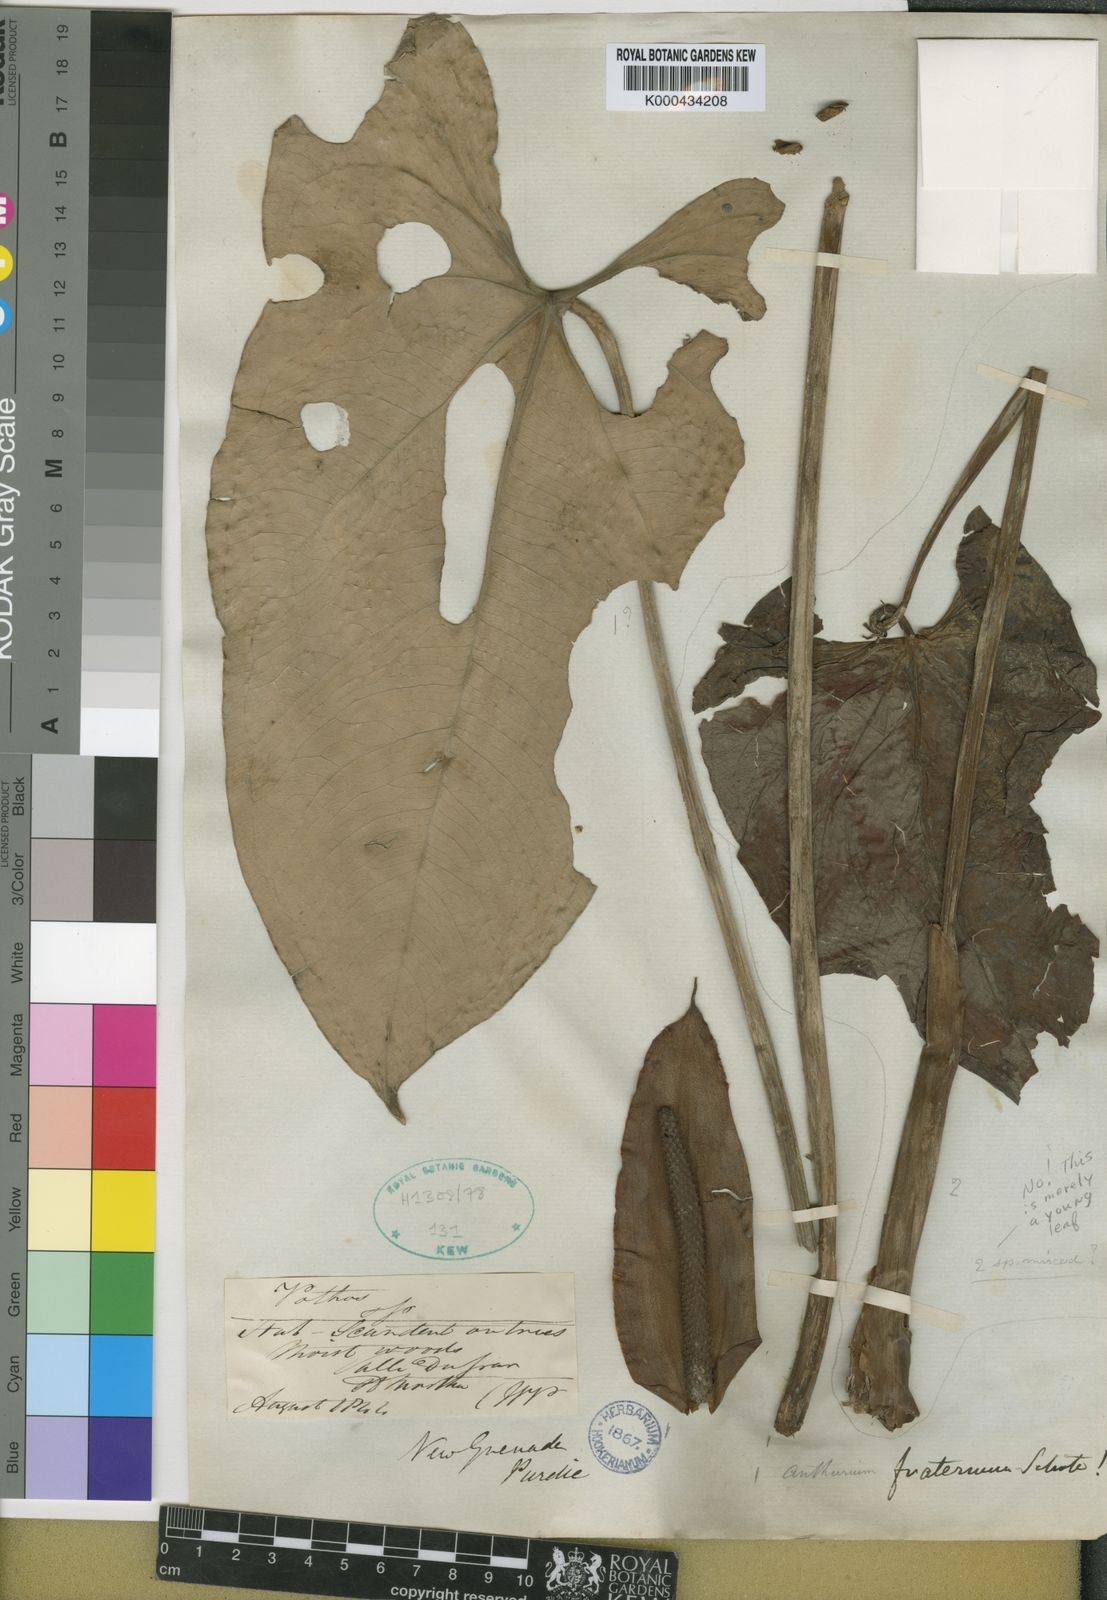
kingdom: Plantae
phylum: Tracheophyta
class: Liliopsida
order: Alismatales
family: Araceae
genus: Anthurium
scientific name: Anthurium nymphaeifolium
